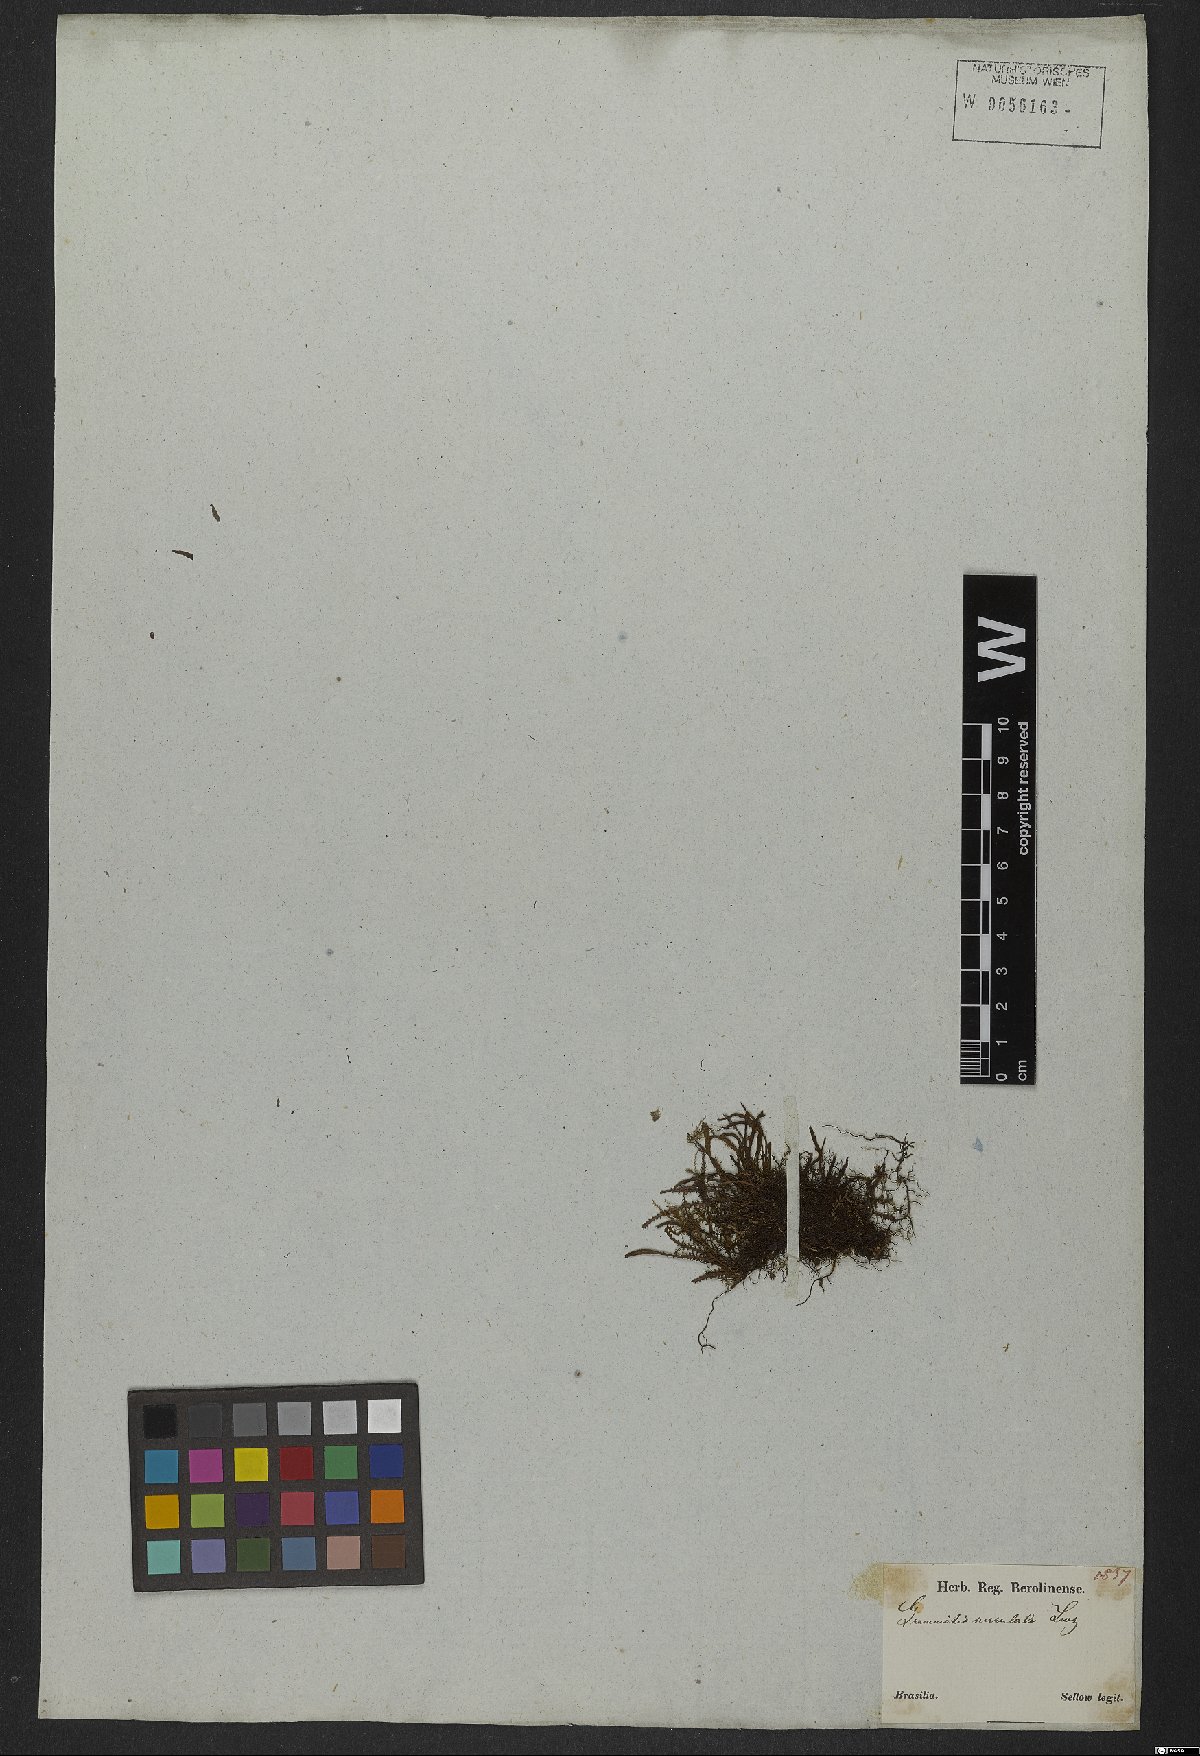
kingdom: Plantae
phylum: Tracheophyta
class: Polypodiopsida
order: Polypodiales
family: Polypodiaceae
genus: Pleopeltis
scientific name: Pleopeltis monoides
